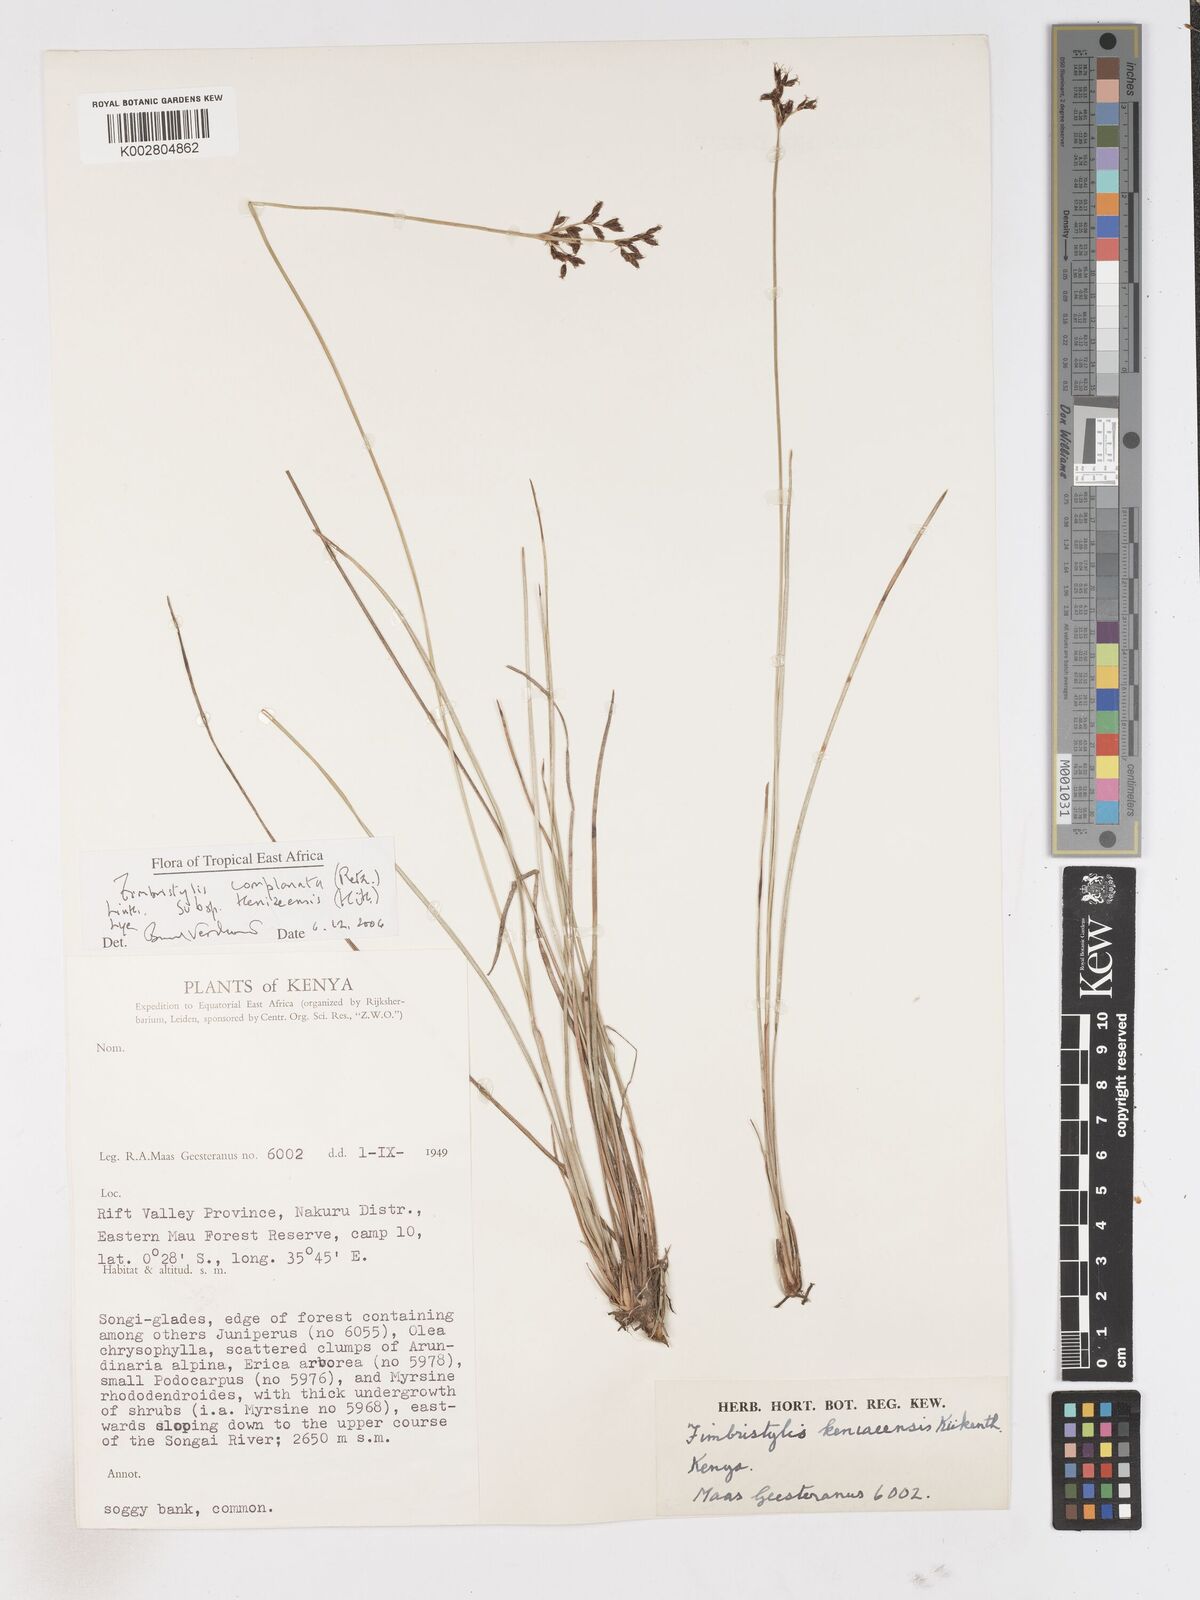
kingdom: Plantae
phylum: Tracheophyta
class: Liliopsida
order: Poales
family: Cyperaceae
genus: Fimbristylis
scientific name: Fimbristylis complanata
